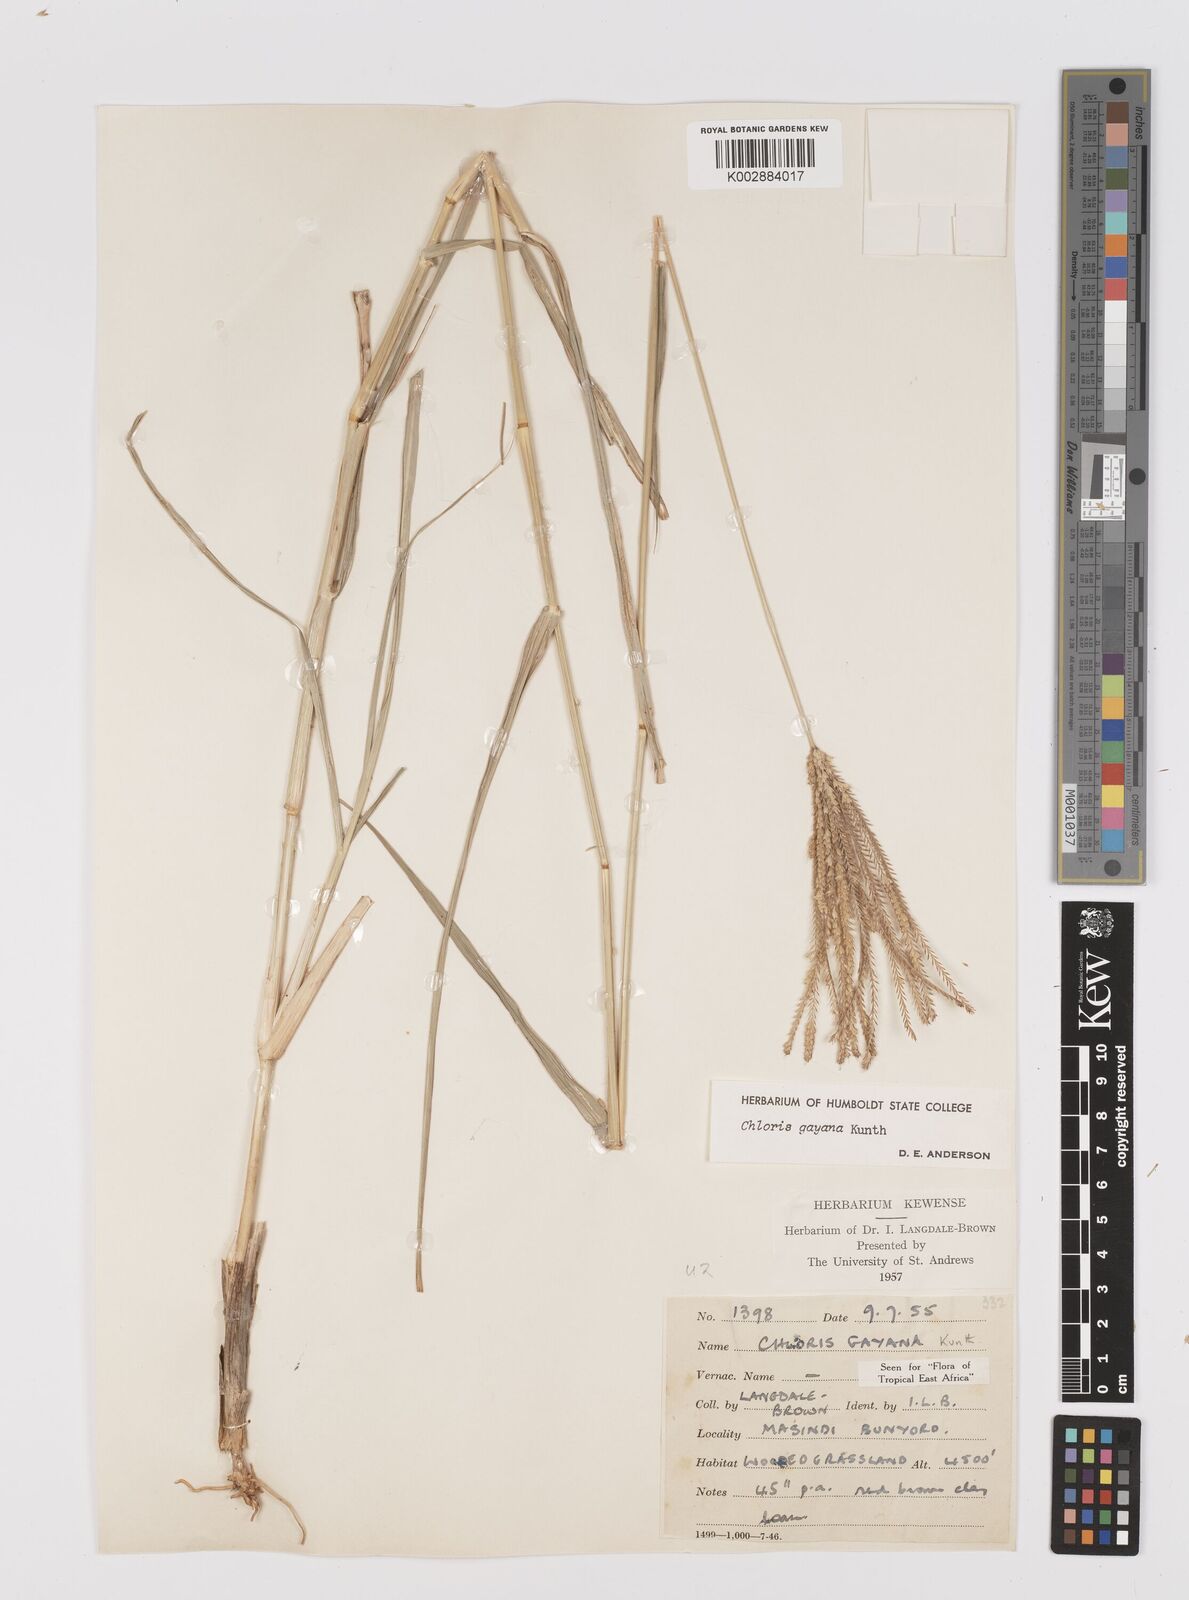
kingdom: Plantae
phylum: Tracheophyta
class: Liliopsida
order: Poales
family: Poaceae
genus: Chloris
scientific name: Chloris gayana
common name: Rhodes grass
